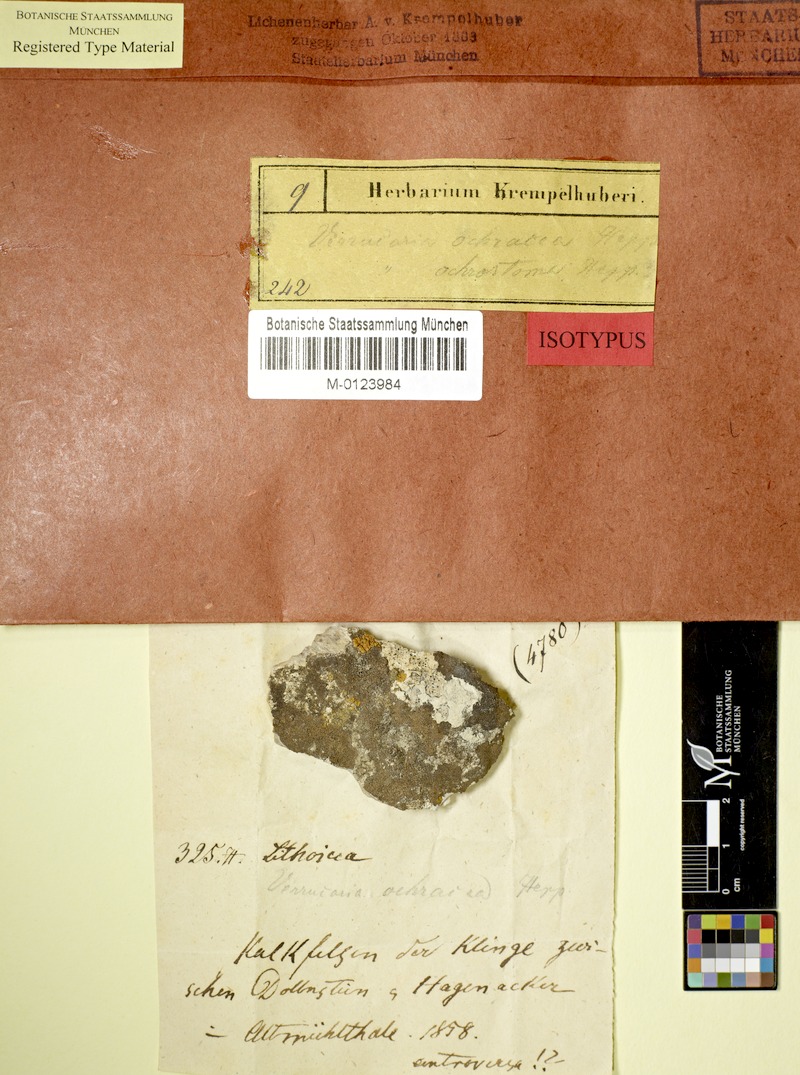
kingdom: Fungi
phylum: Ascomycota
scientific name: Ascomycota
